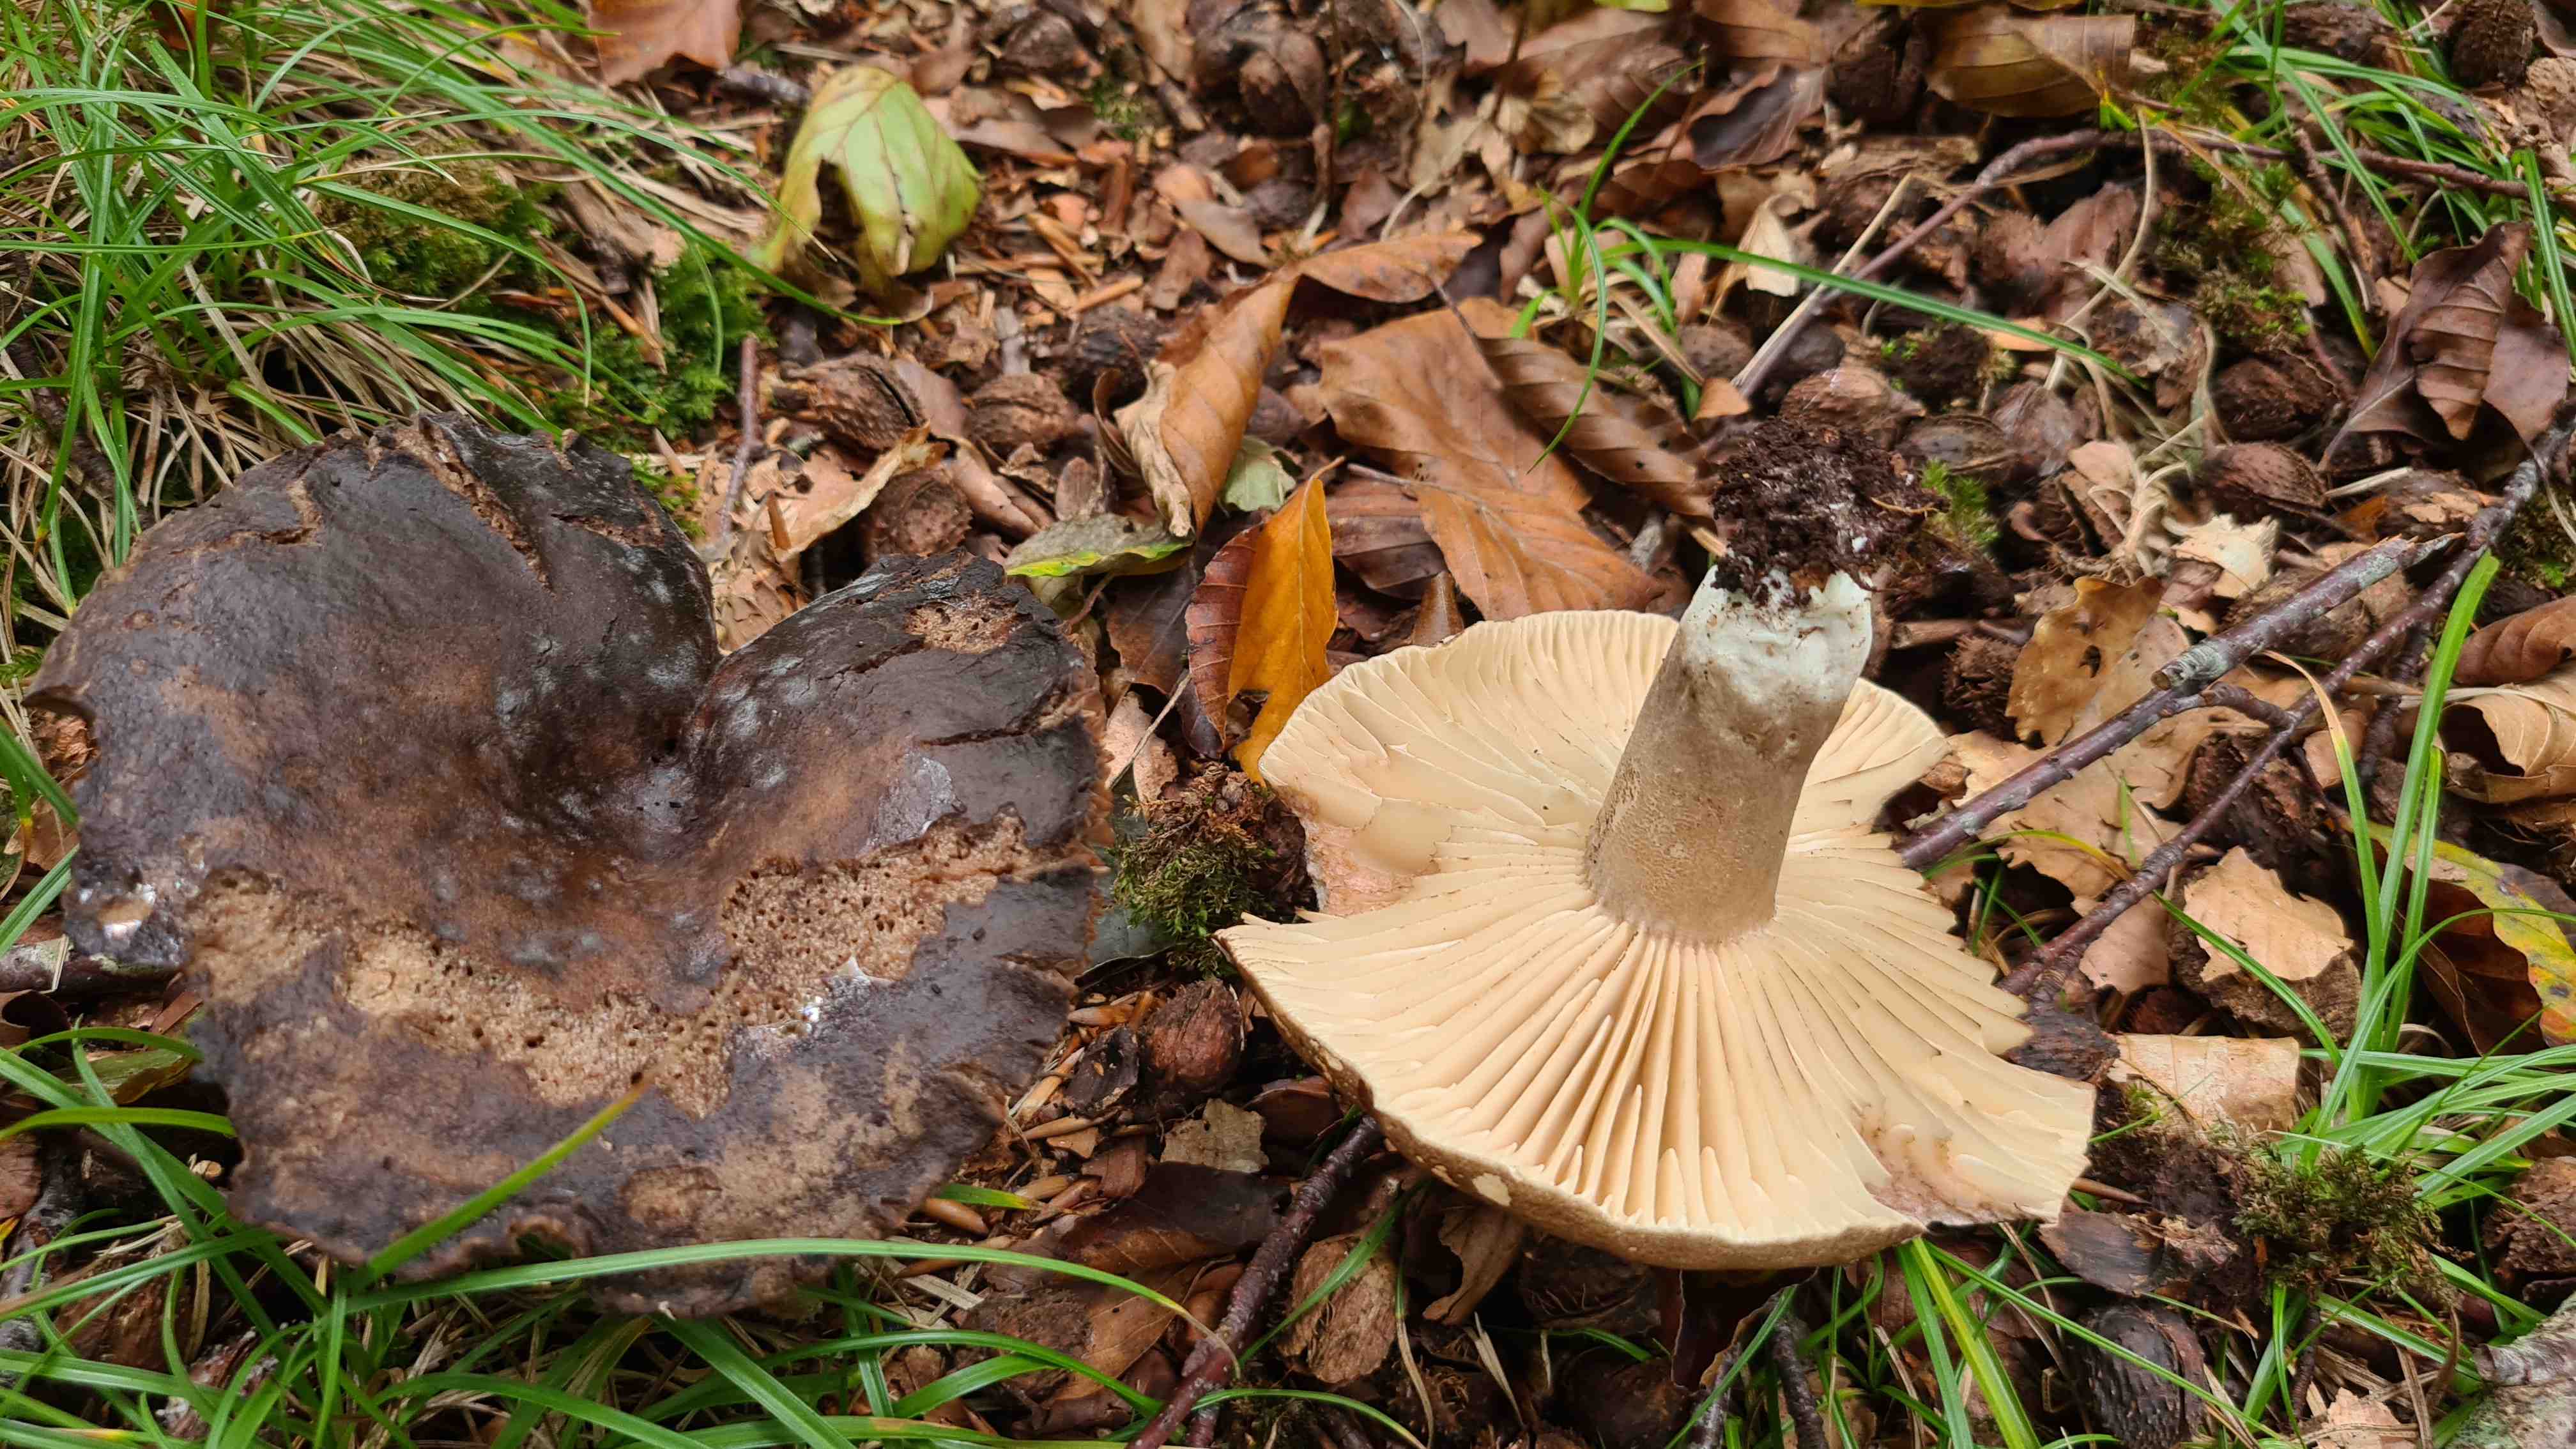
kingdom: Fungi
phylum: Basidiomycota
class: Agaricomycetes
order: Russulales
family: Russulaceae
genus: Russula
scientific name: Russula adusta
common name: sværtende skørhat
